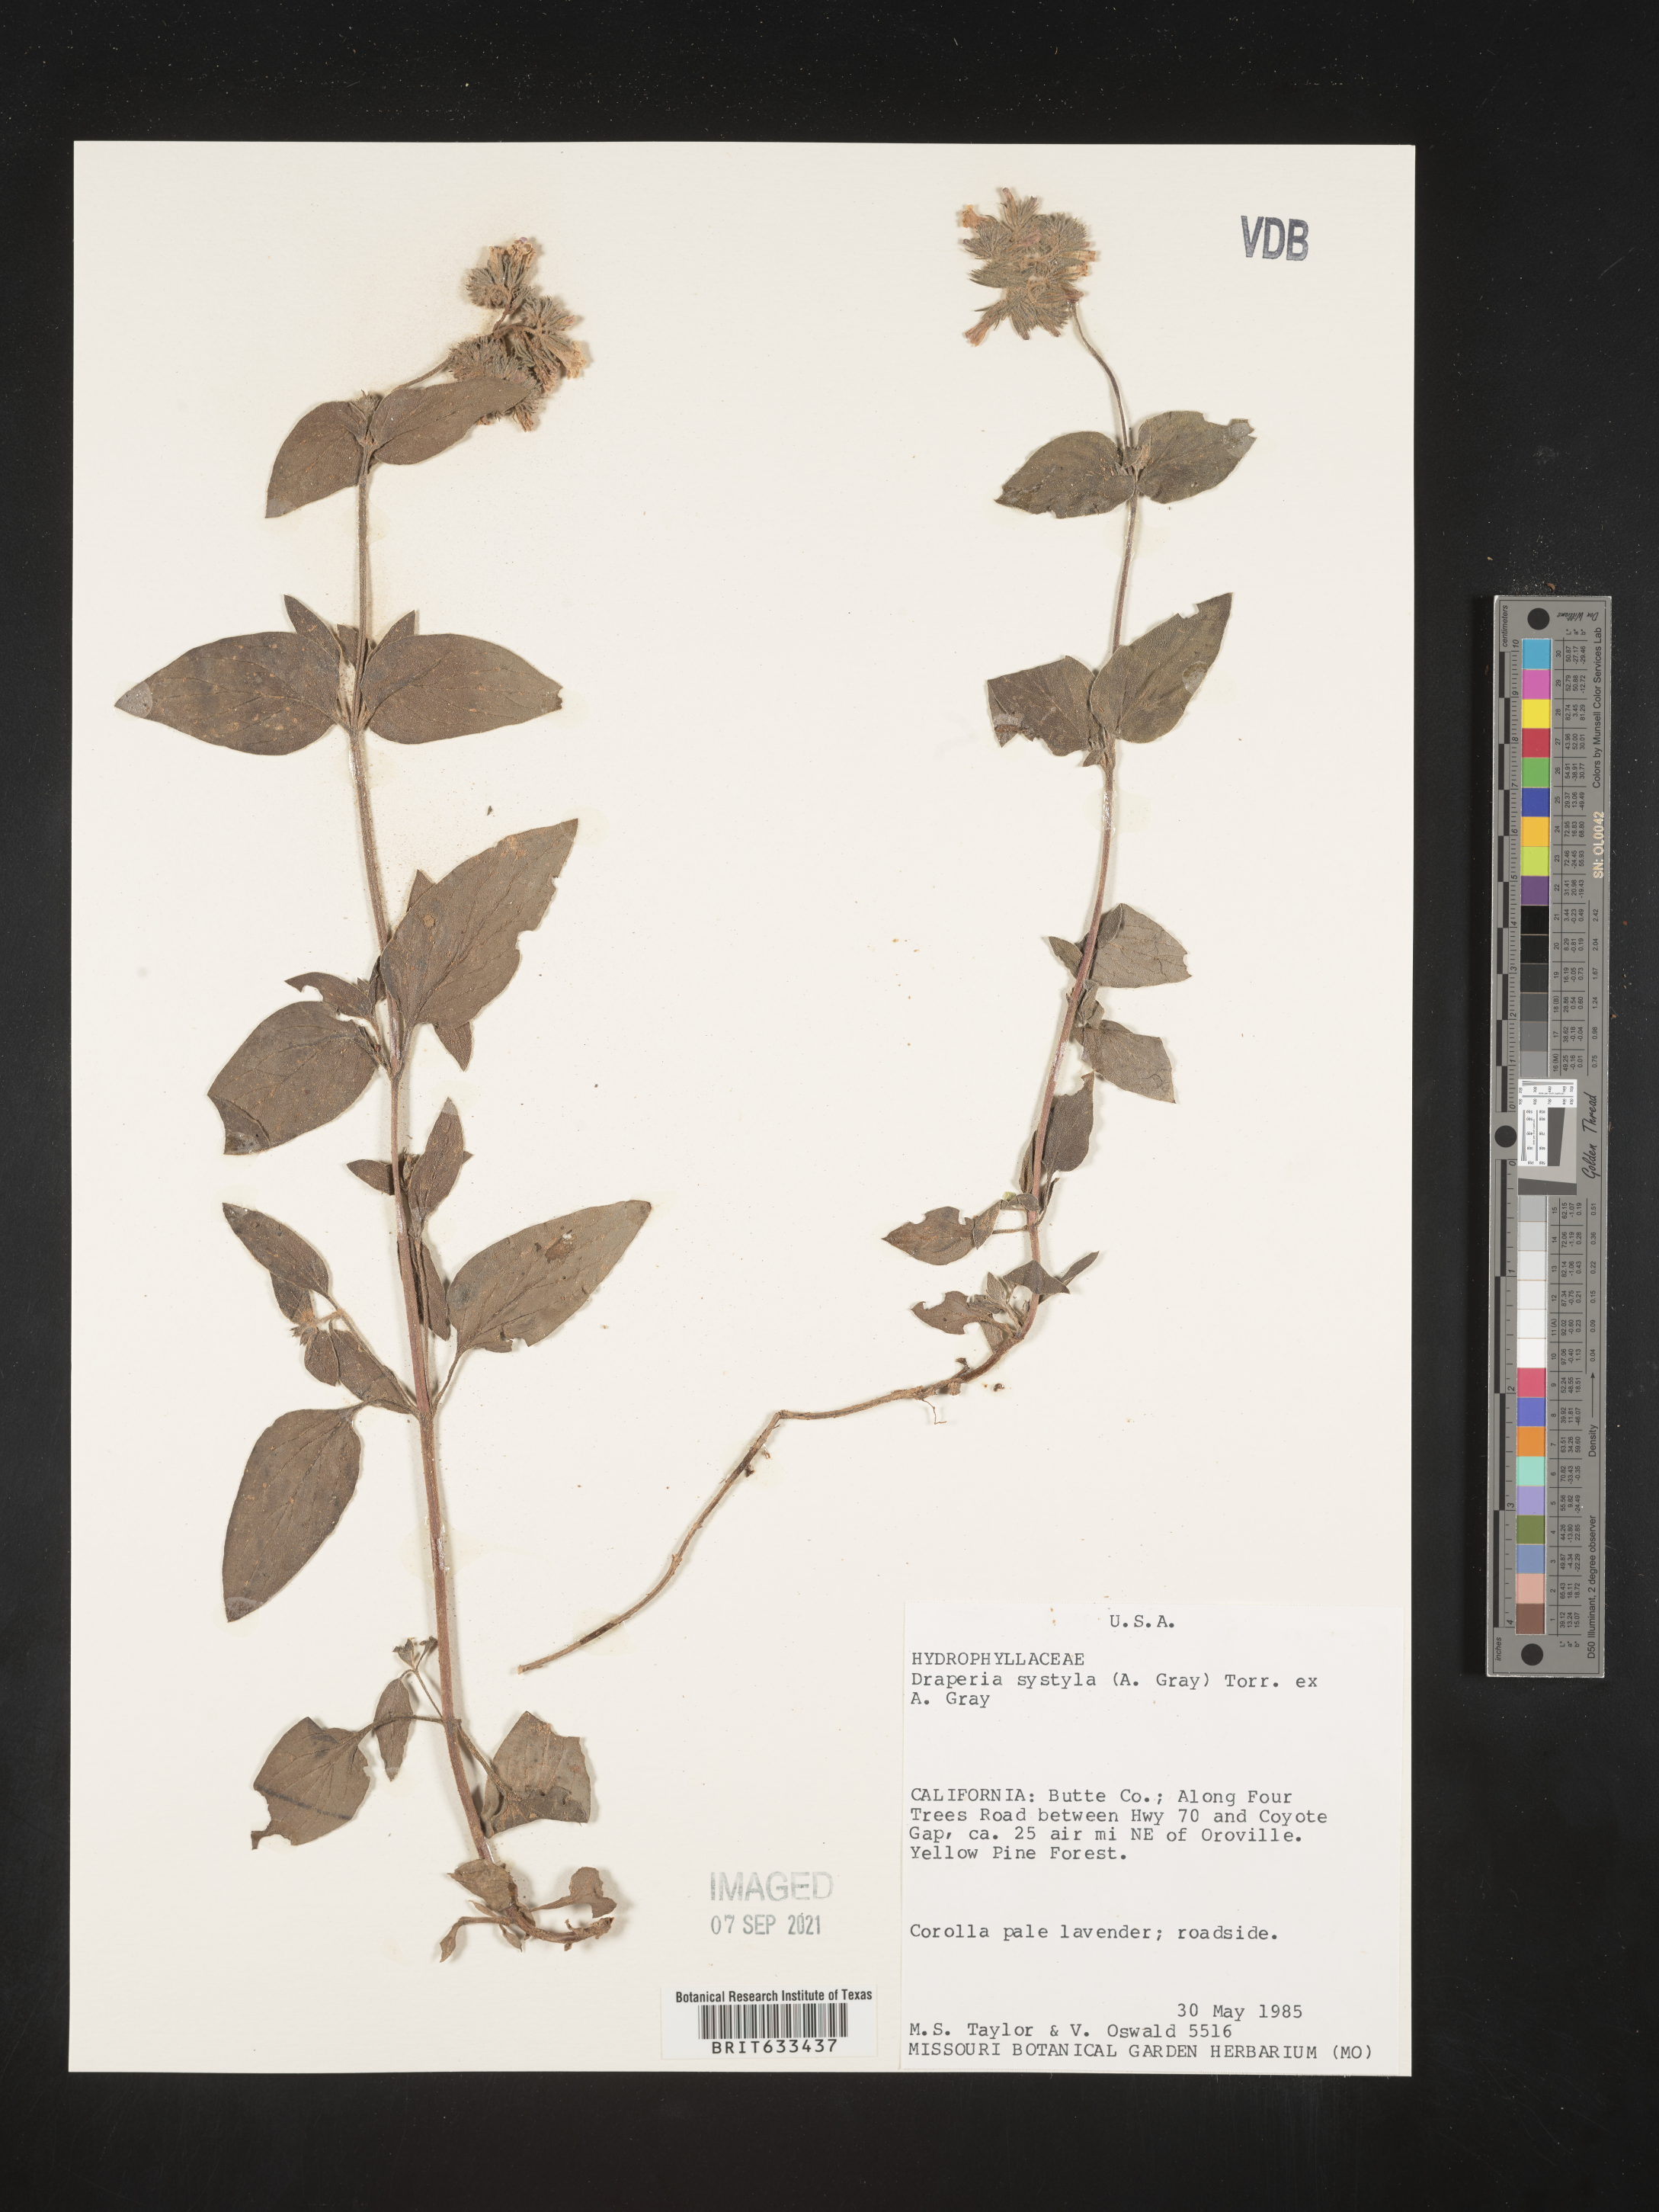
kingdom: Plantae
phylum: Tracheophyta
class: Magnoliopsida
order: Boraginales
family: Hydrophyllaceae
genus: Draperia
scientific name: Draperia systyla
